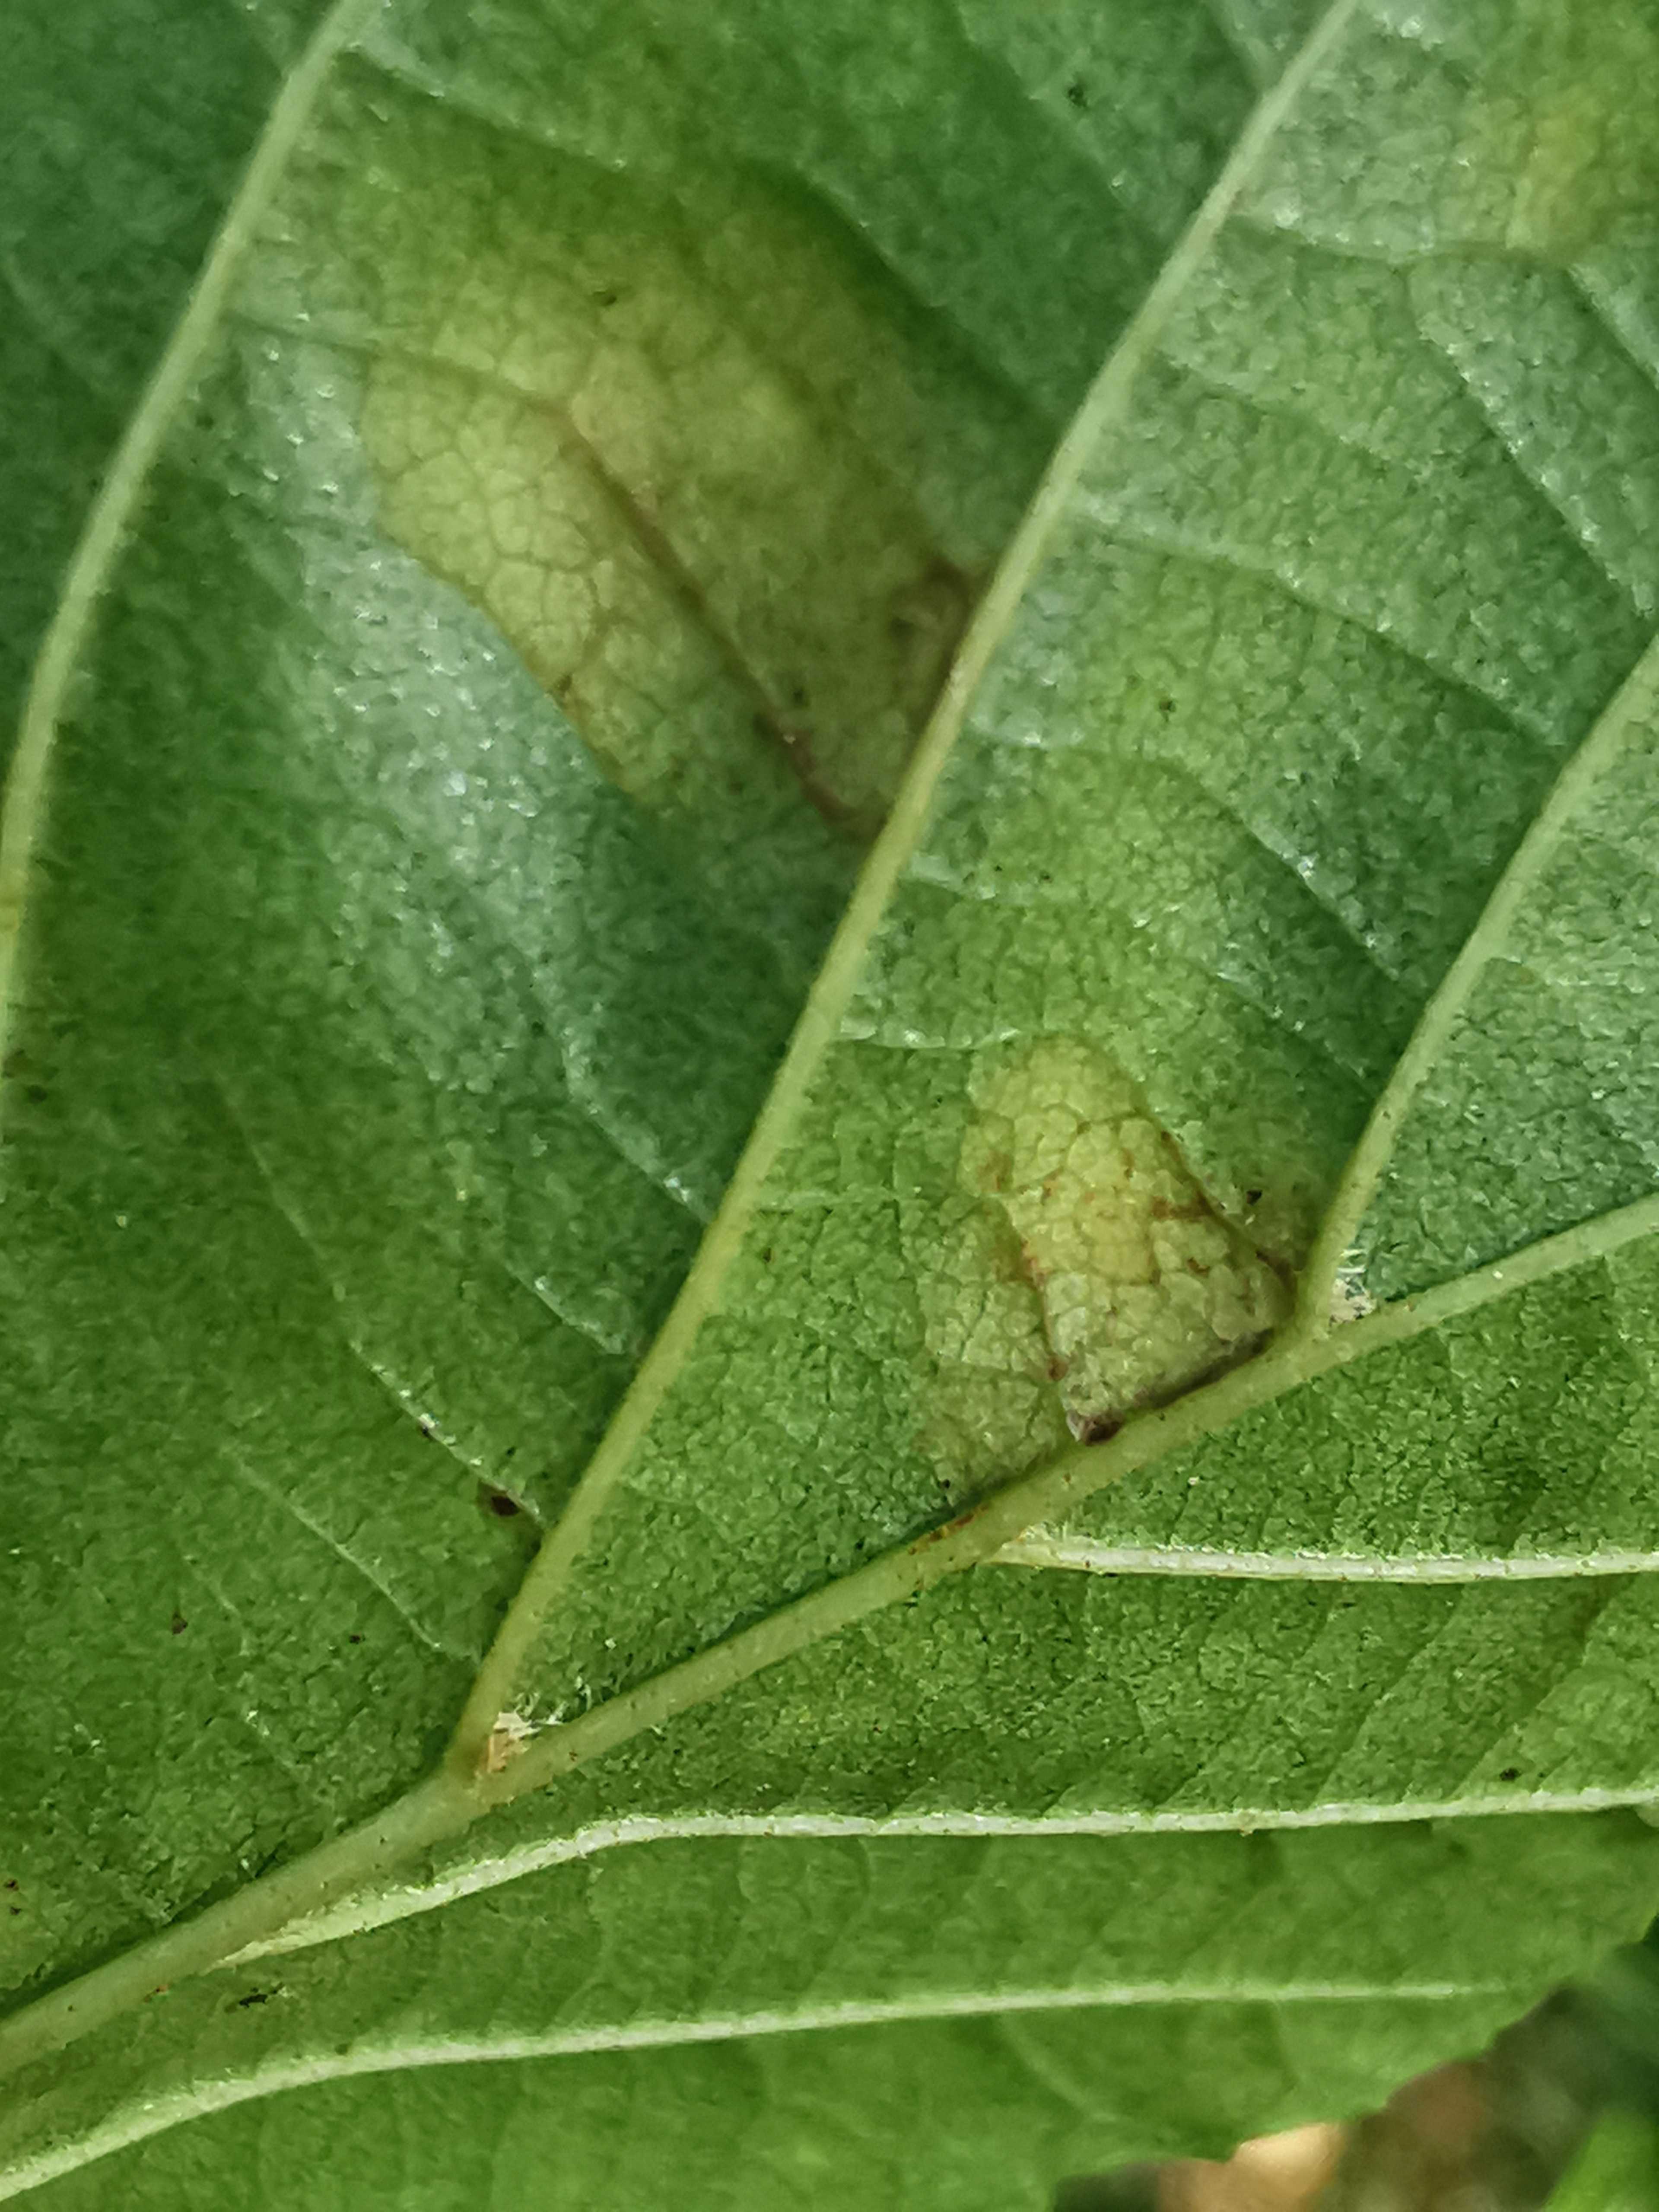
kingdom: Fungi
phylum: Ascomycota
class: Taphrinomycetes
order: Taphrinales
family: Taphrinaceae
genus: Taphrina
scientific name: Taphrina sadebeckii
